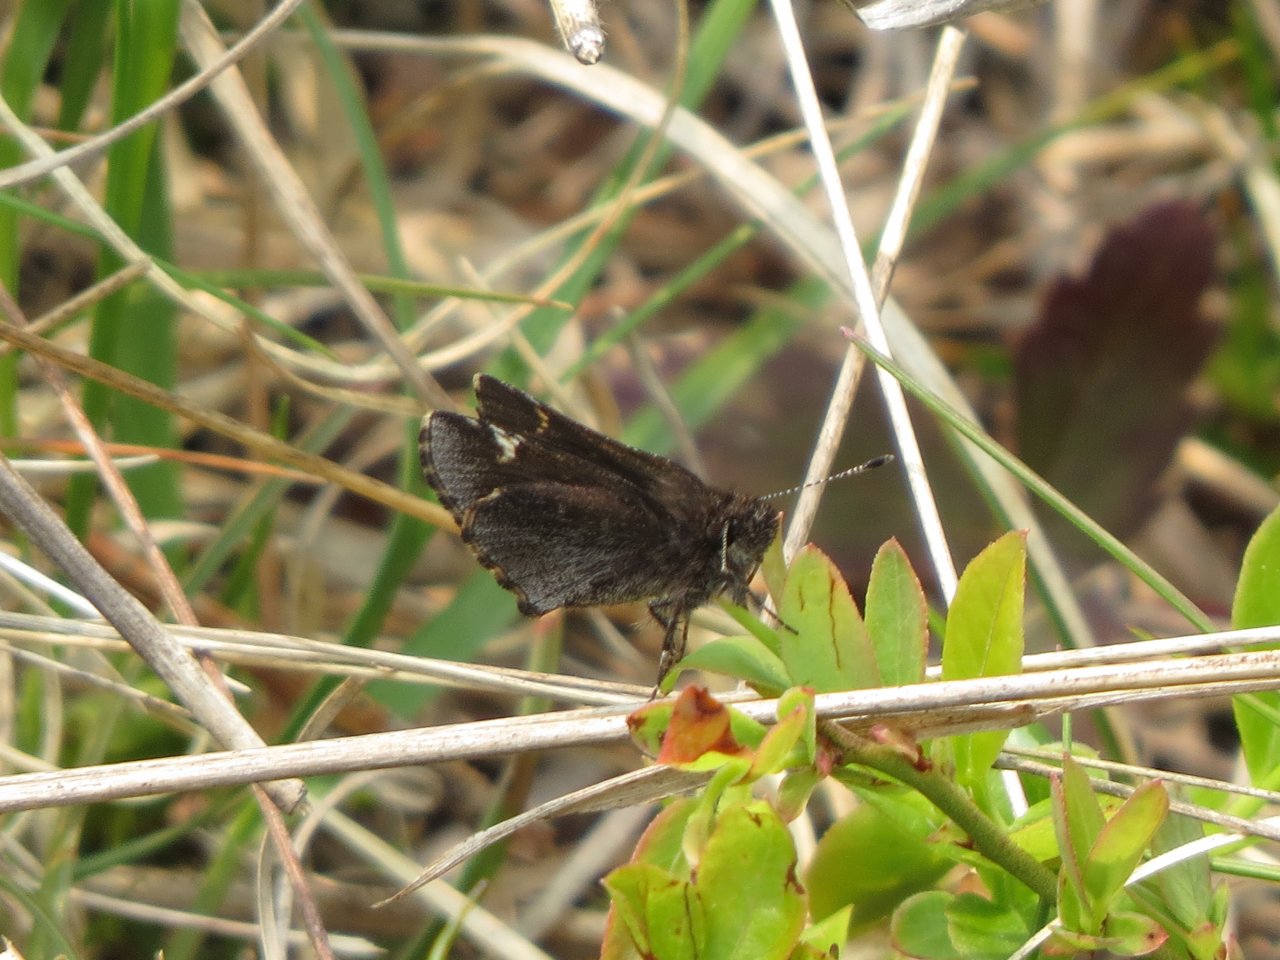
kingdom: Animalia
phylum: Arthropoda
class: Insecta
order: Lepidoptera
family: Hesperiidae
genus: Mastor
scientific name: Mastor vialis
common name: Common Roadside-Skipper
